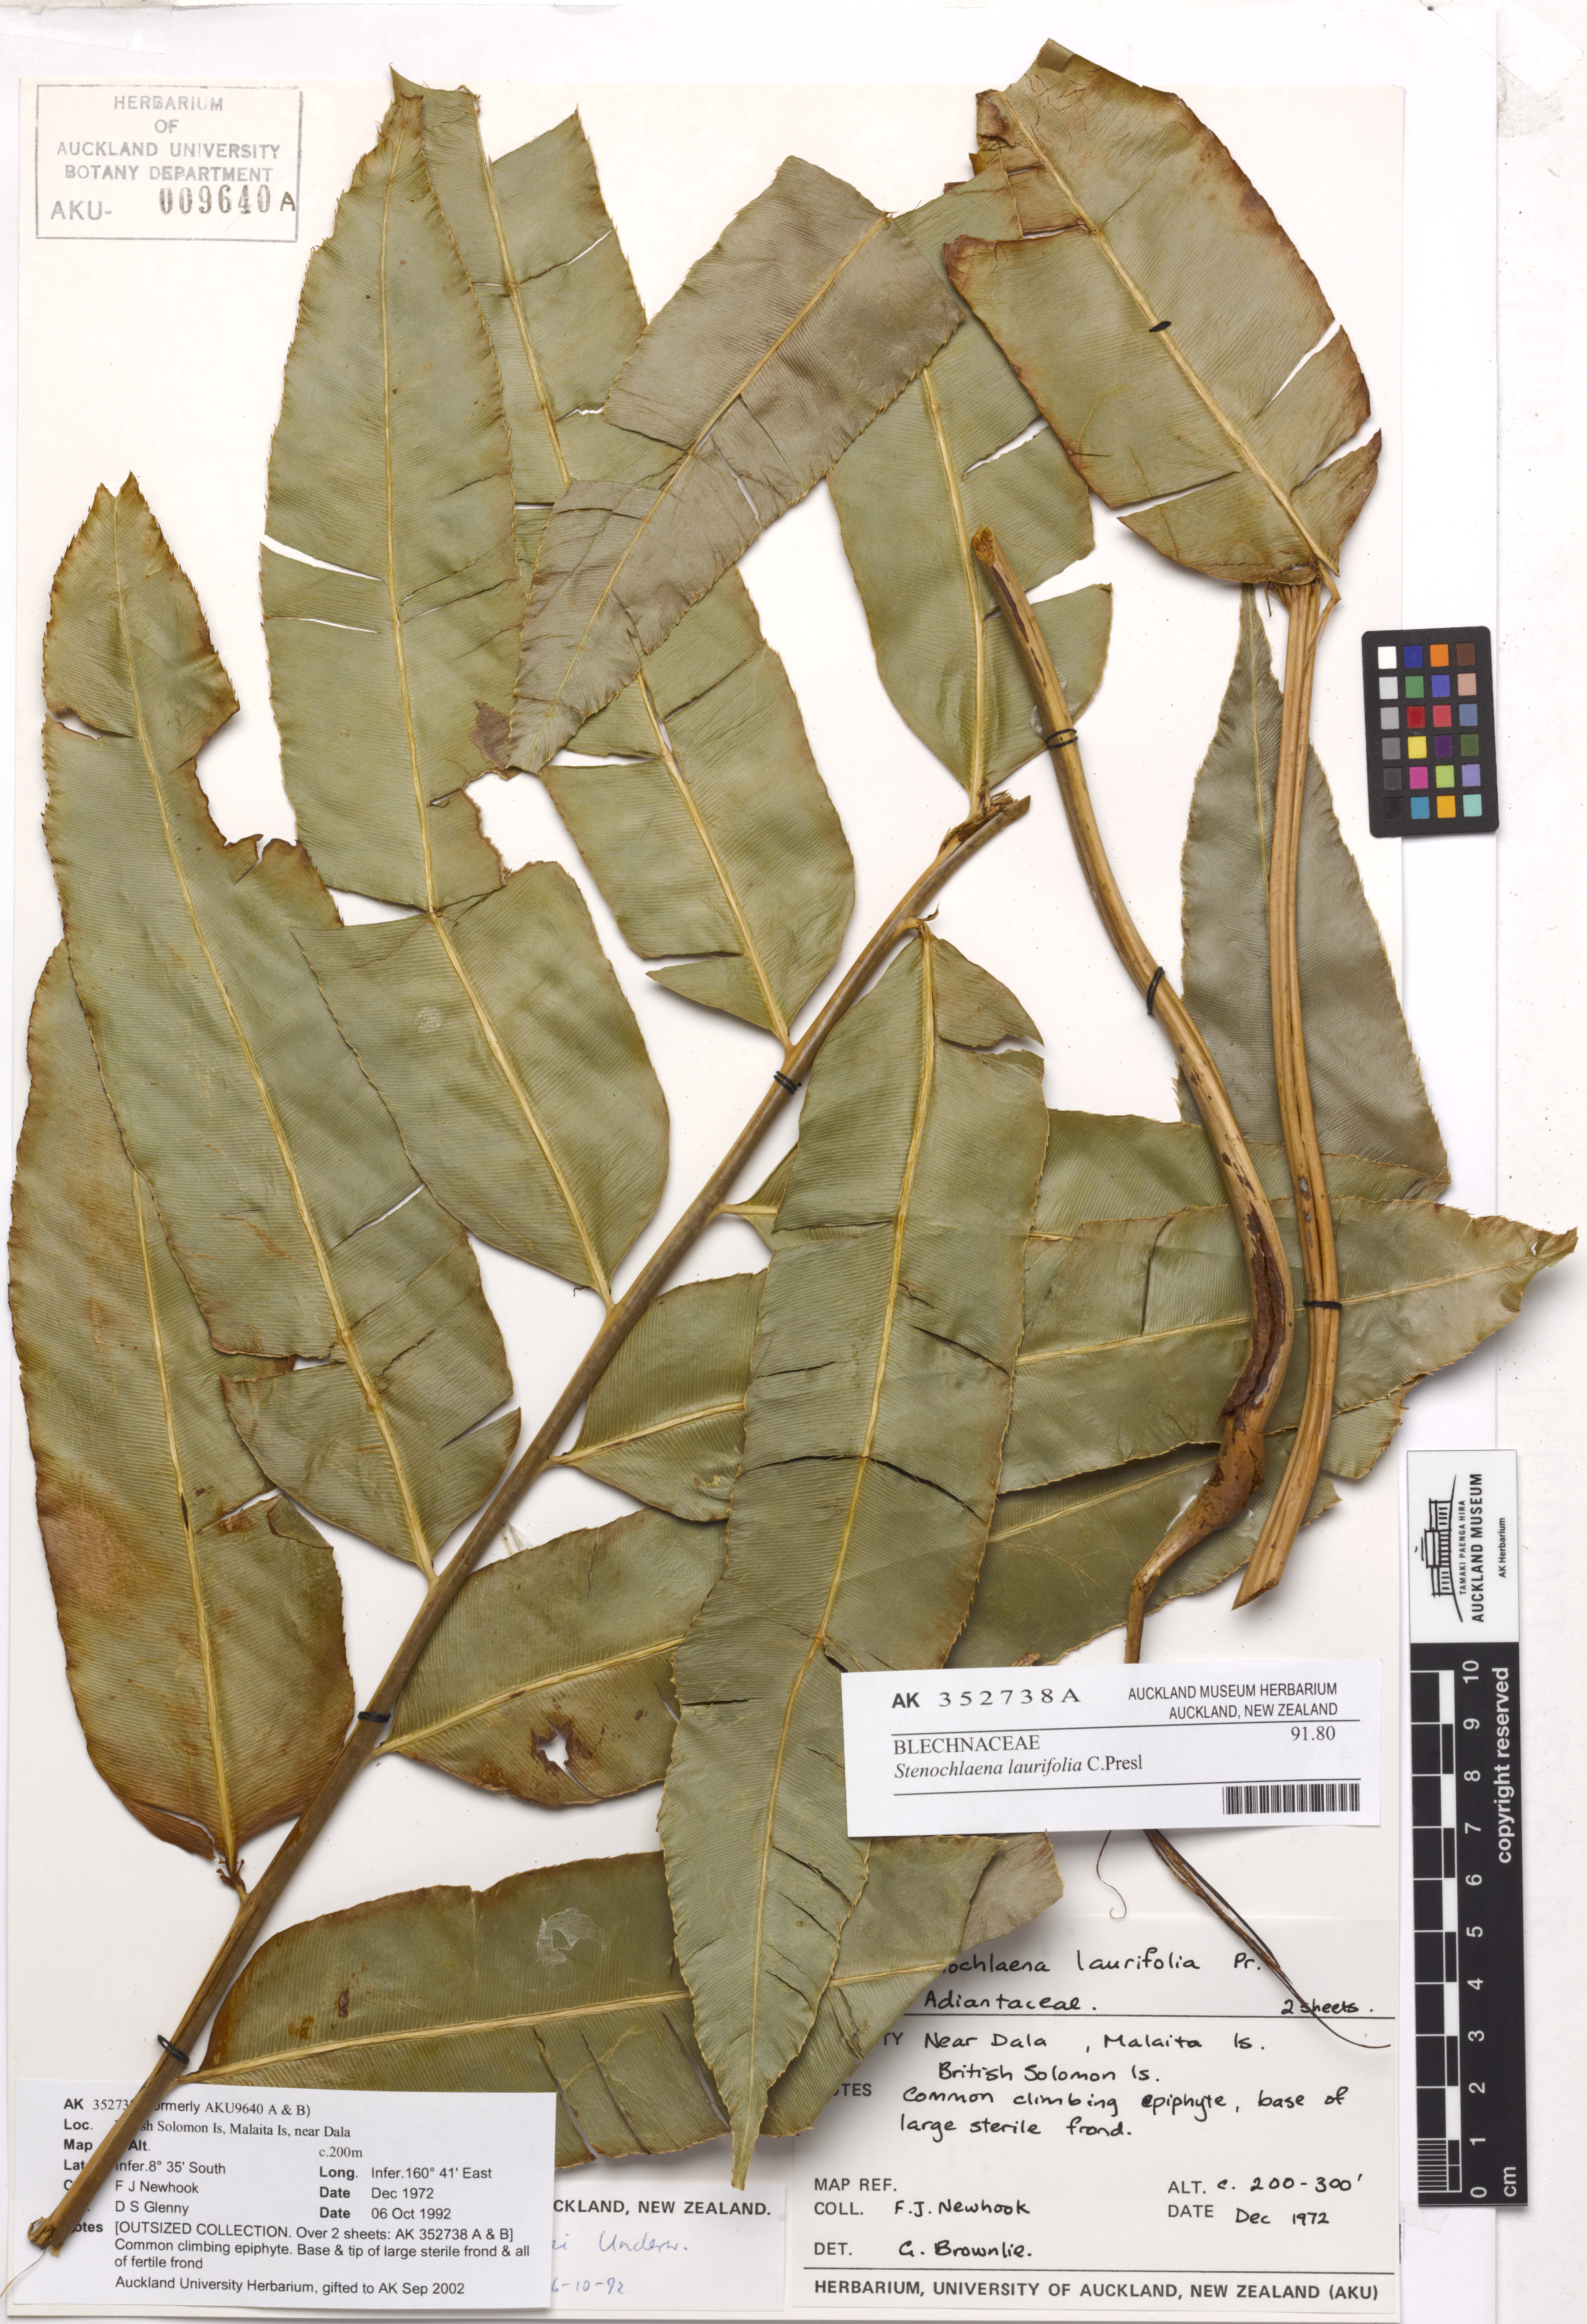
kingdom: Plantae
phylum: Tracheophyta
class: Polypodiopsida
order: Polypodiales
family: Blechnaceae
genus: Stenochlaena
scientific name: Stenochlaena milnei
